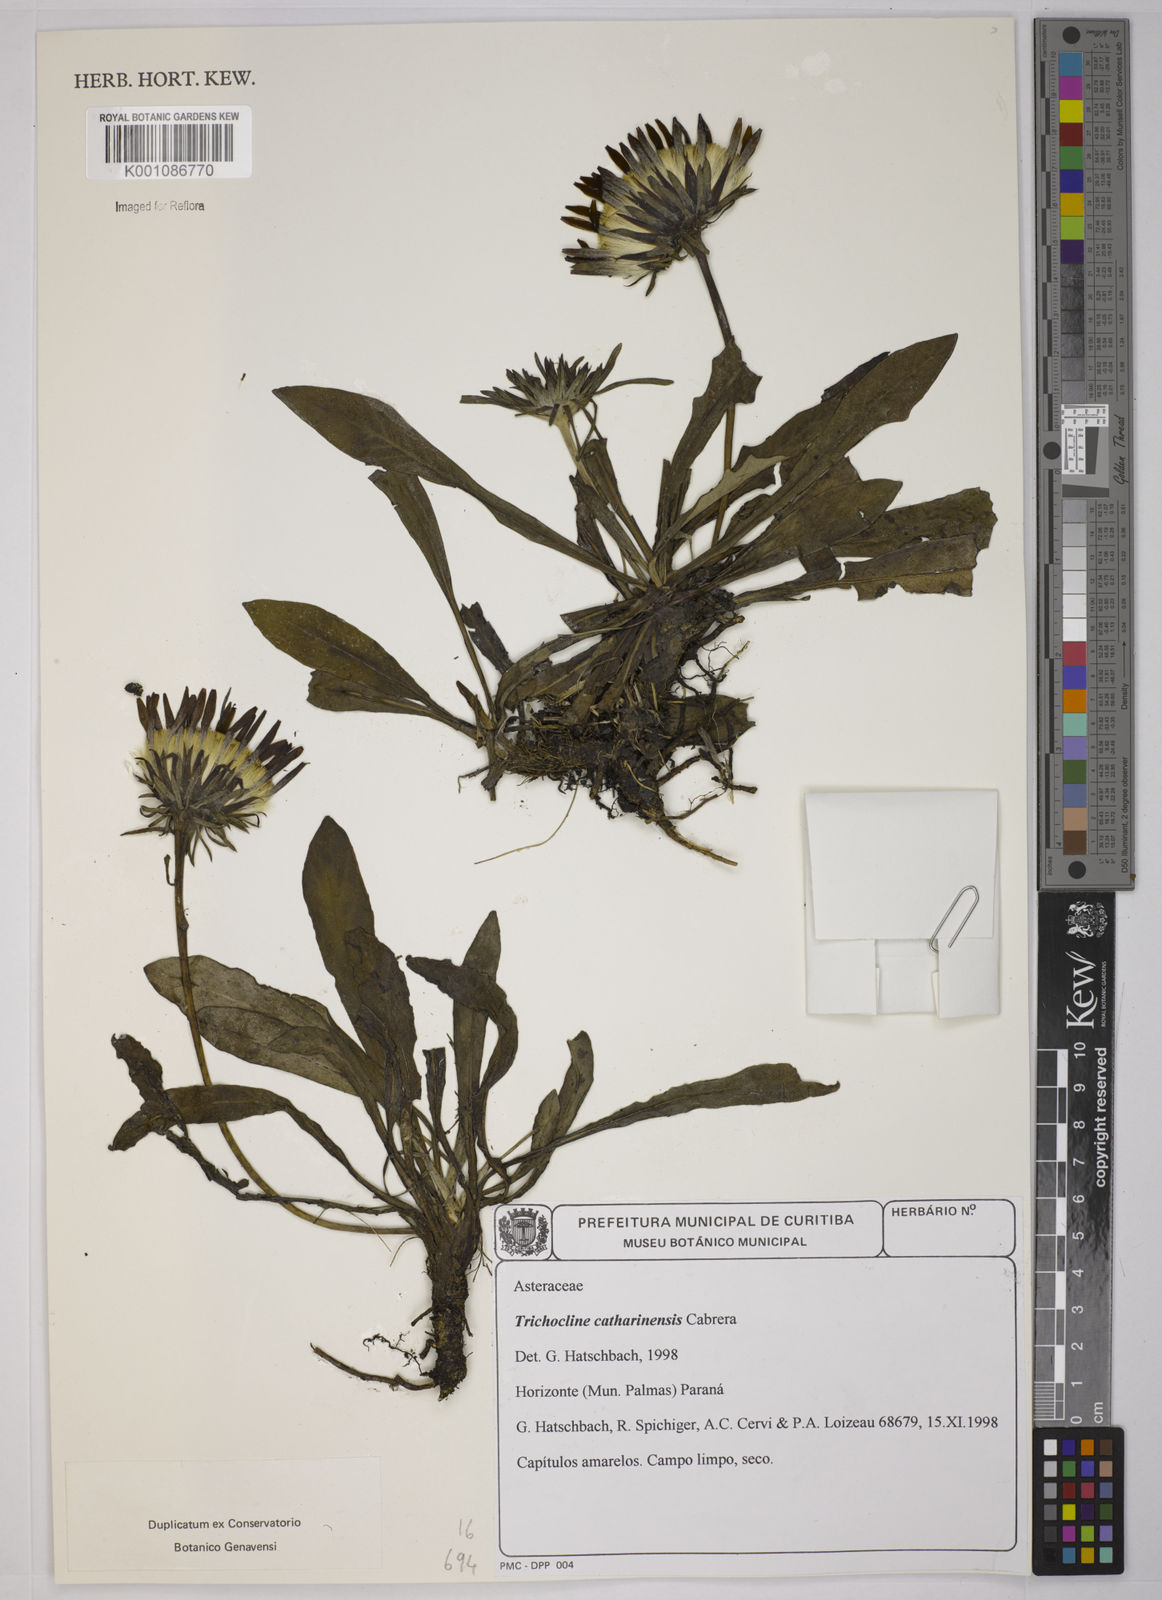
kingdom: Plantae
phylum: Tracheophyta
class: Magnoliopsida
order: Asterales
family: Asteraceae
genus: Trichocline
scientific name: Trichocline catharinensis
